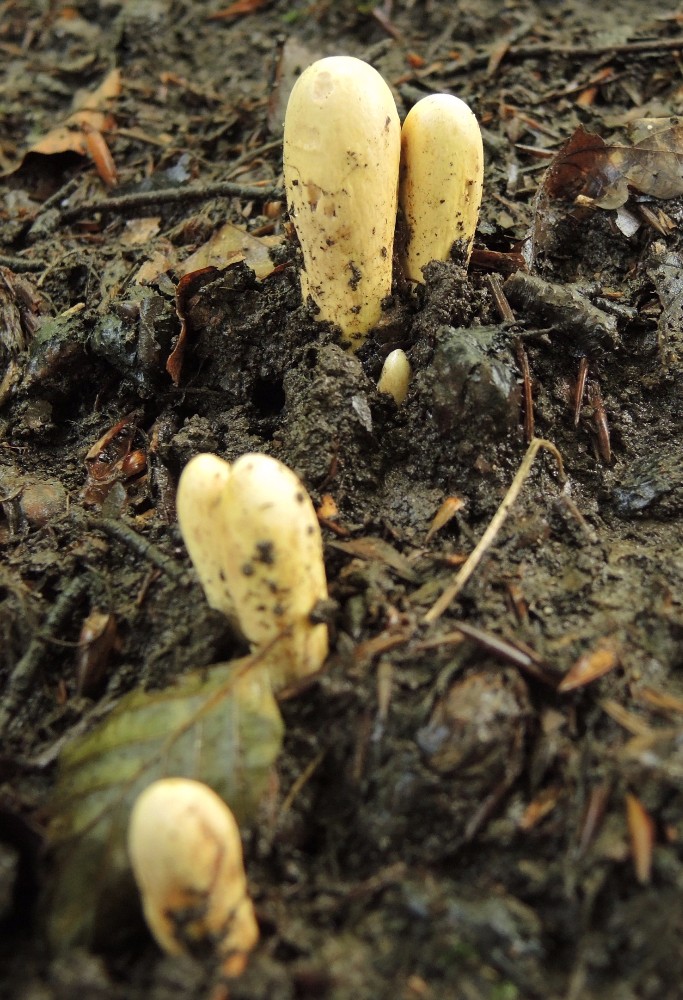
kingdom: Fungi
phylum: Basidiomycota
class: Agaricomycetes
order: Gomphales
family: Clavariadelphaceae
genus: Clavariadelphus
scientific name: Clavariadelphus pistillaris
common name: herkules-kæmpekølle
